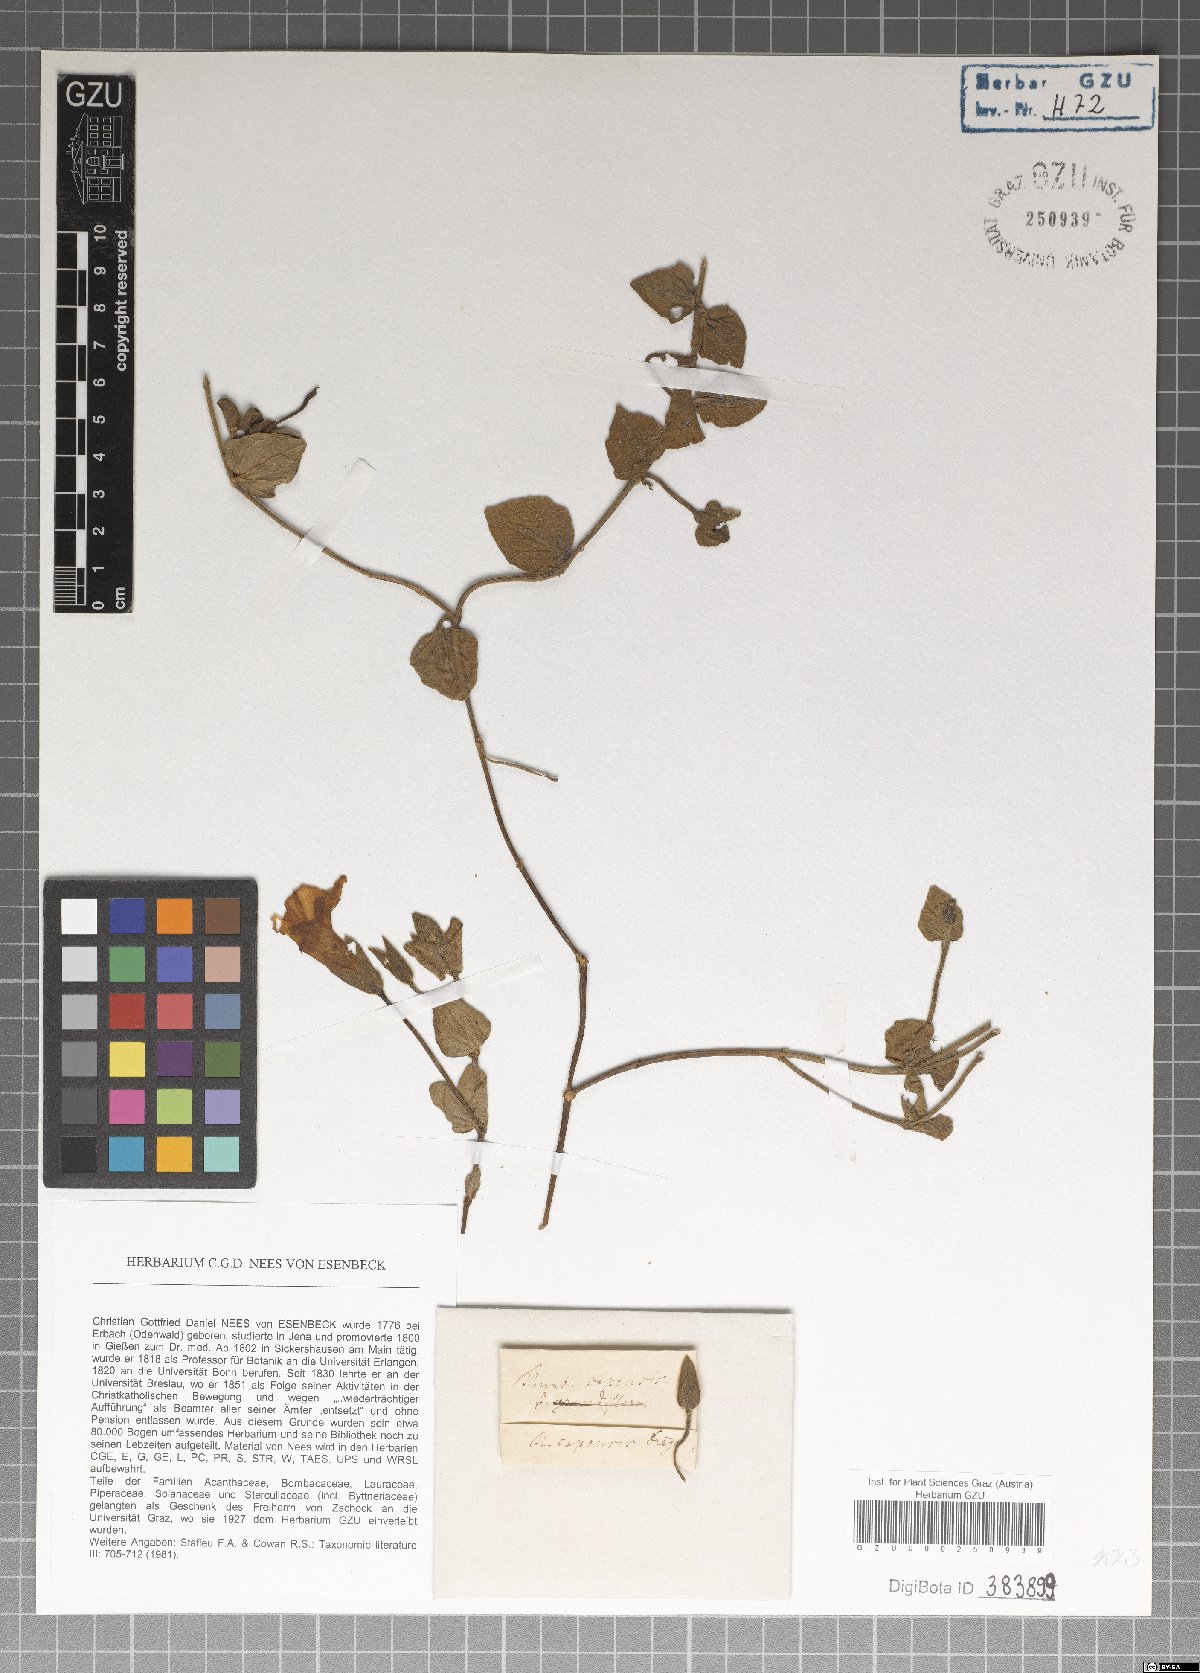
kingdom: Plantae
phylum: Tracheophyta
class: Magnoliopsida
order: Lamiales
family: Acanthaceae
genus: Thunbergia
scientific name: Thunbergia capensis
